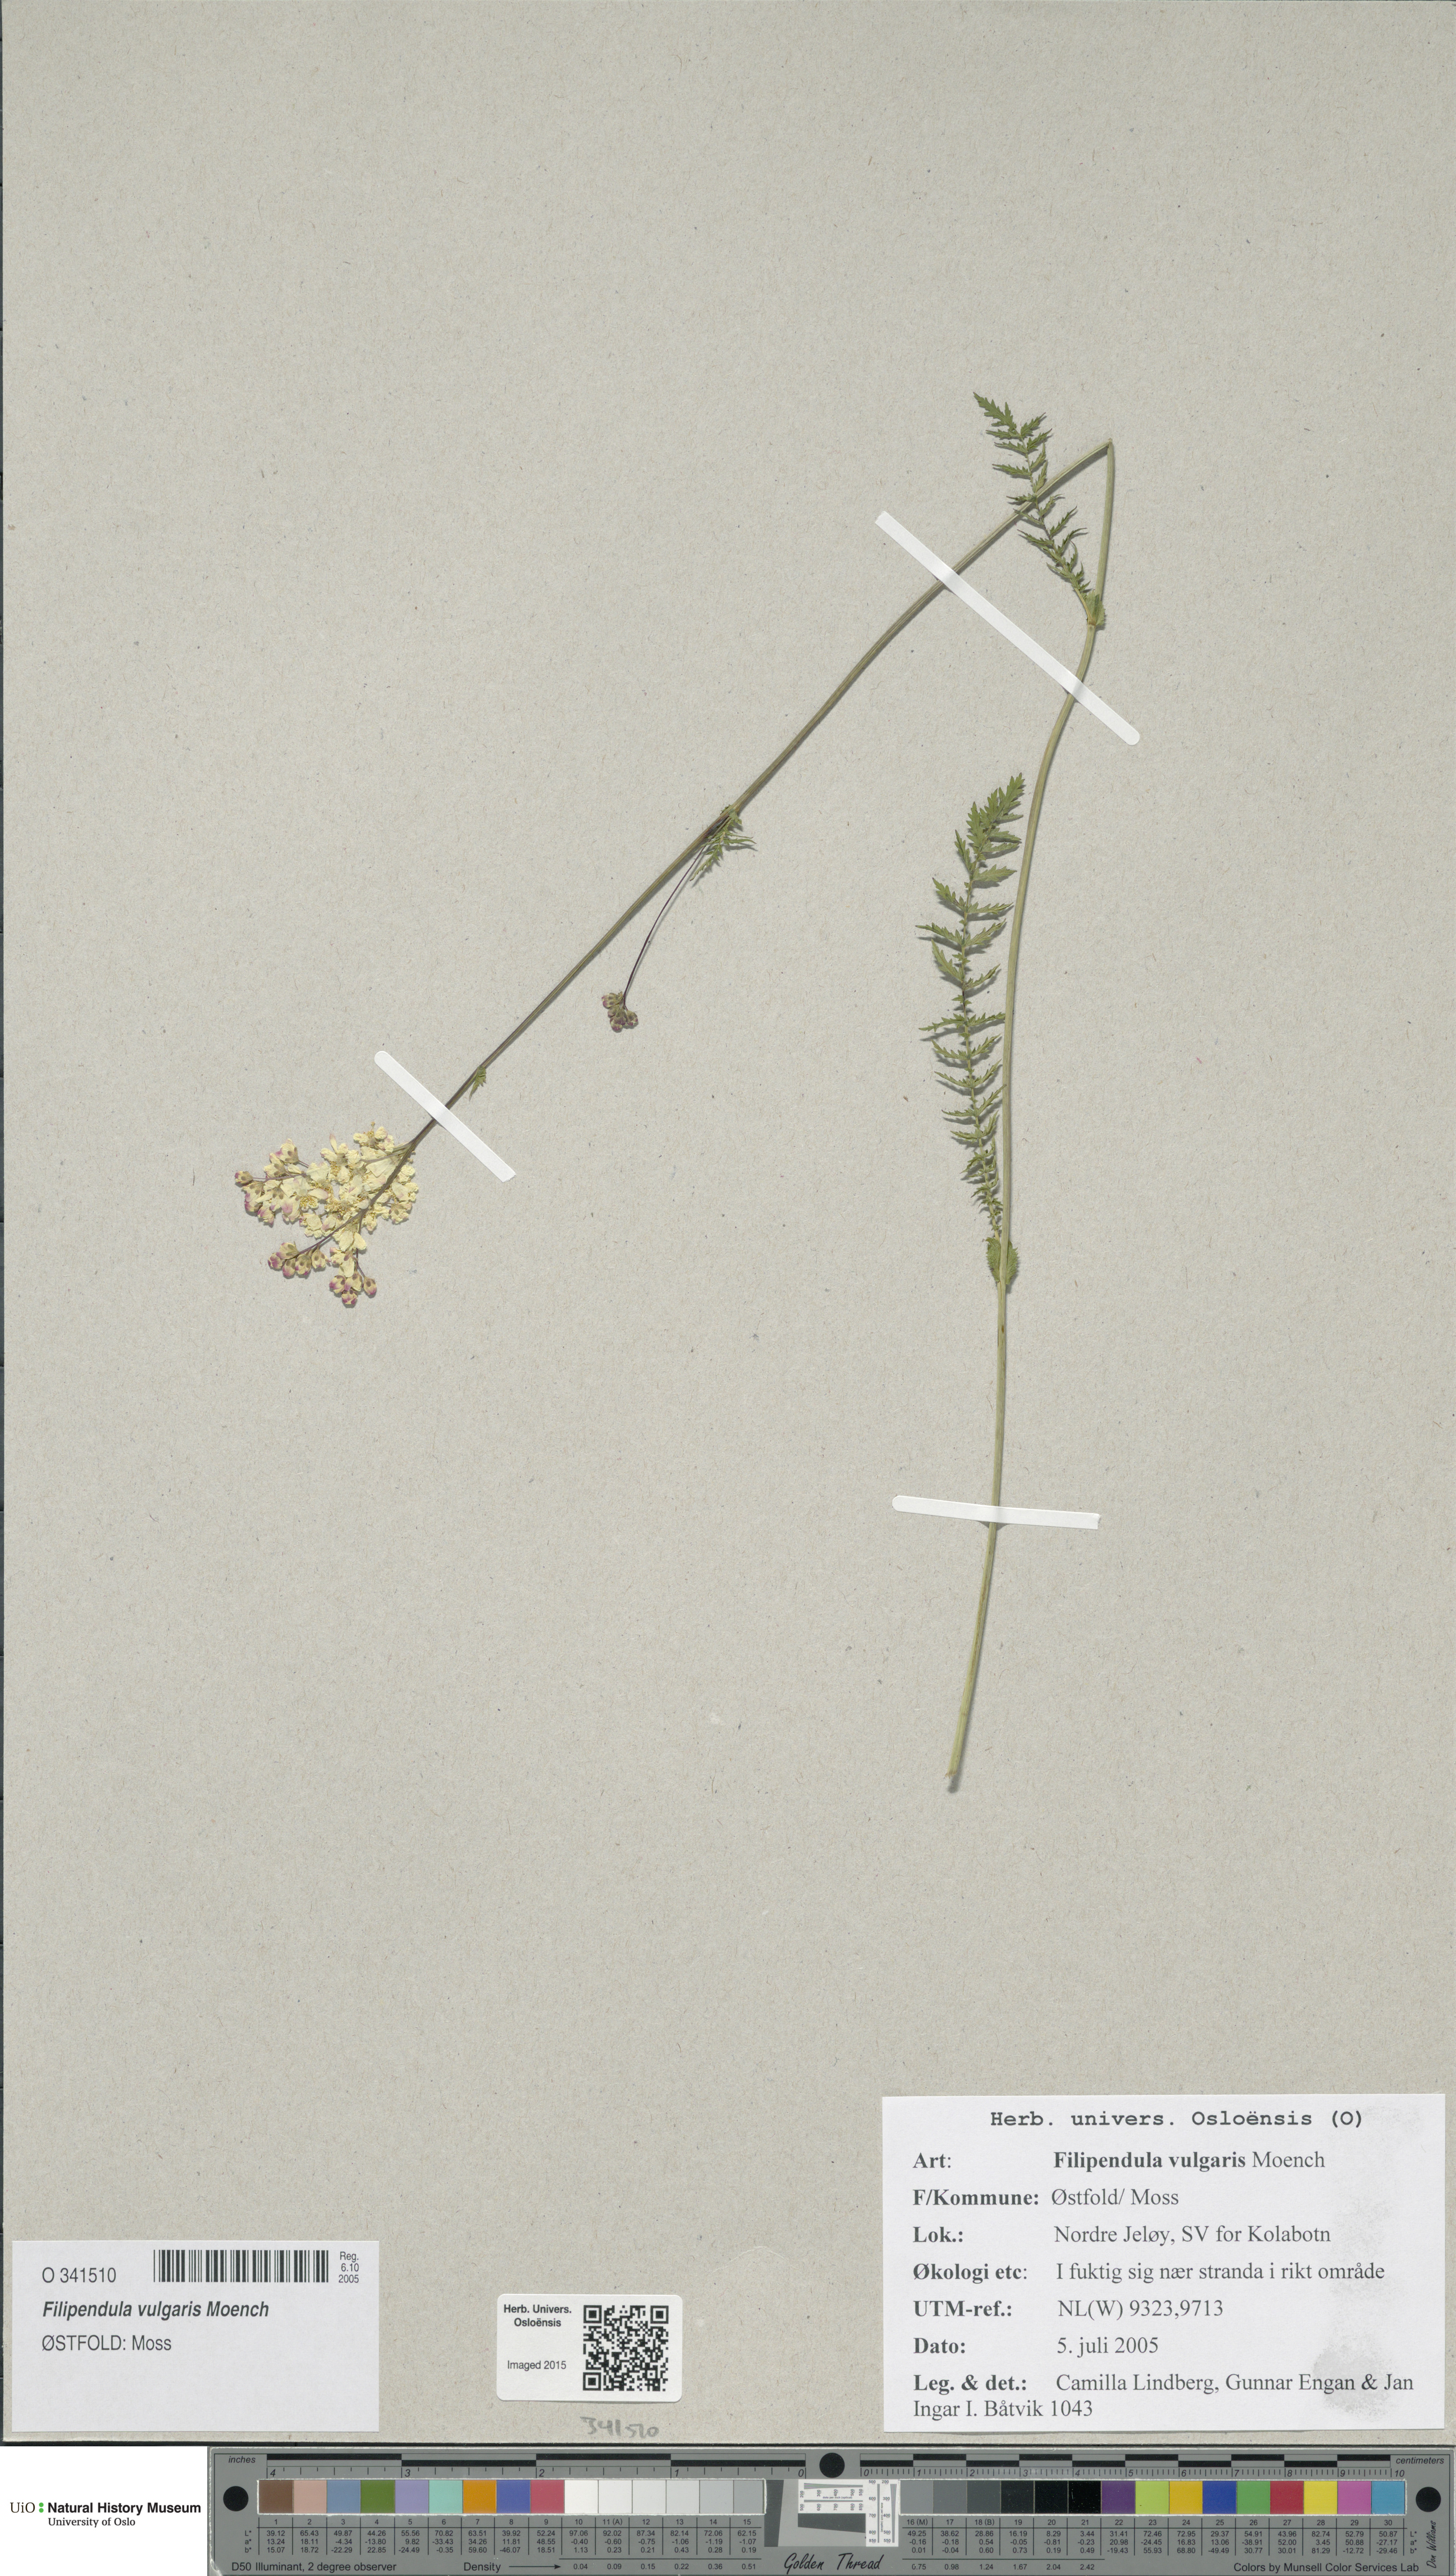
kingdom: Plantae
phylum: Tracheophyta
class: Magnoliopsida
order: Rosales
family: Rosaceae
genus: Filipendula
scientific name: Filipendula vulgaris
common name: Dropwort
